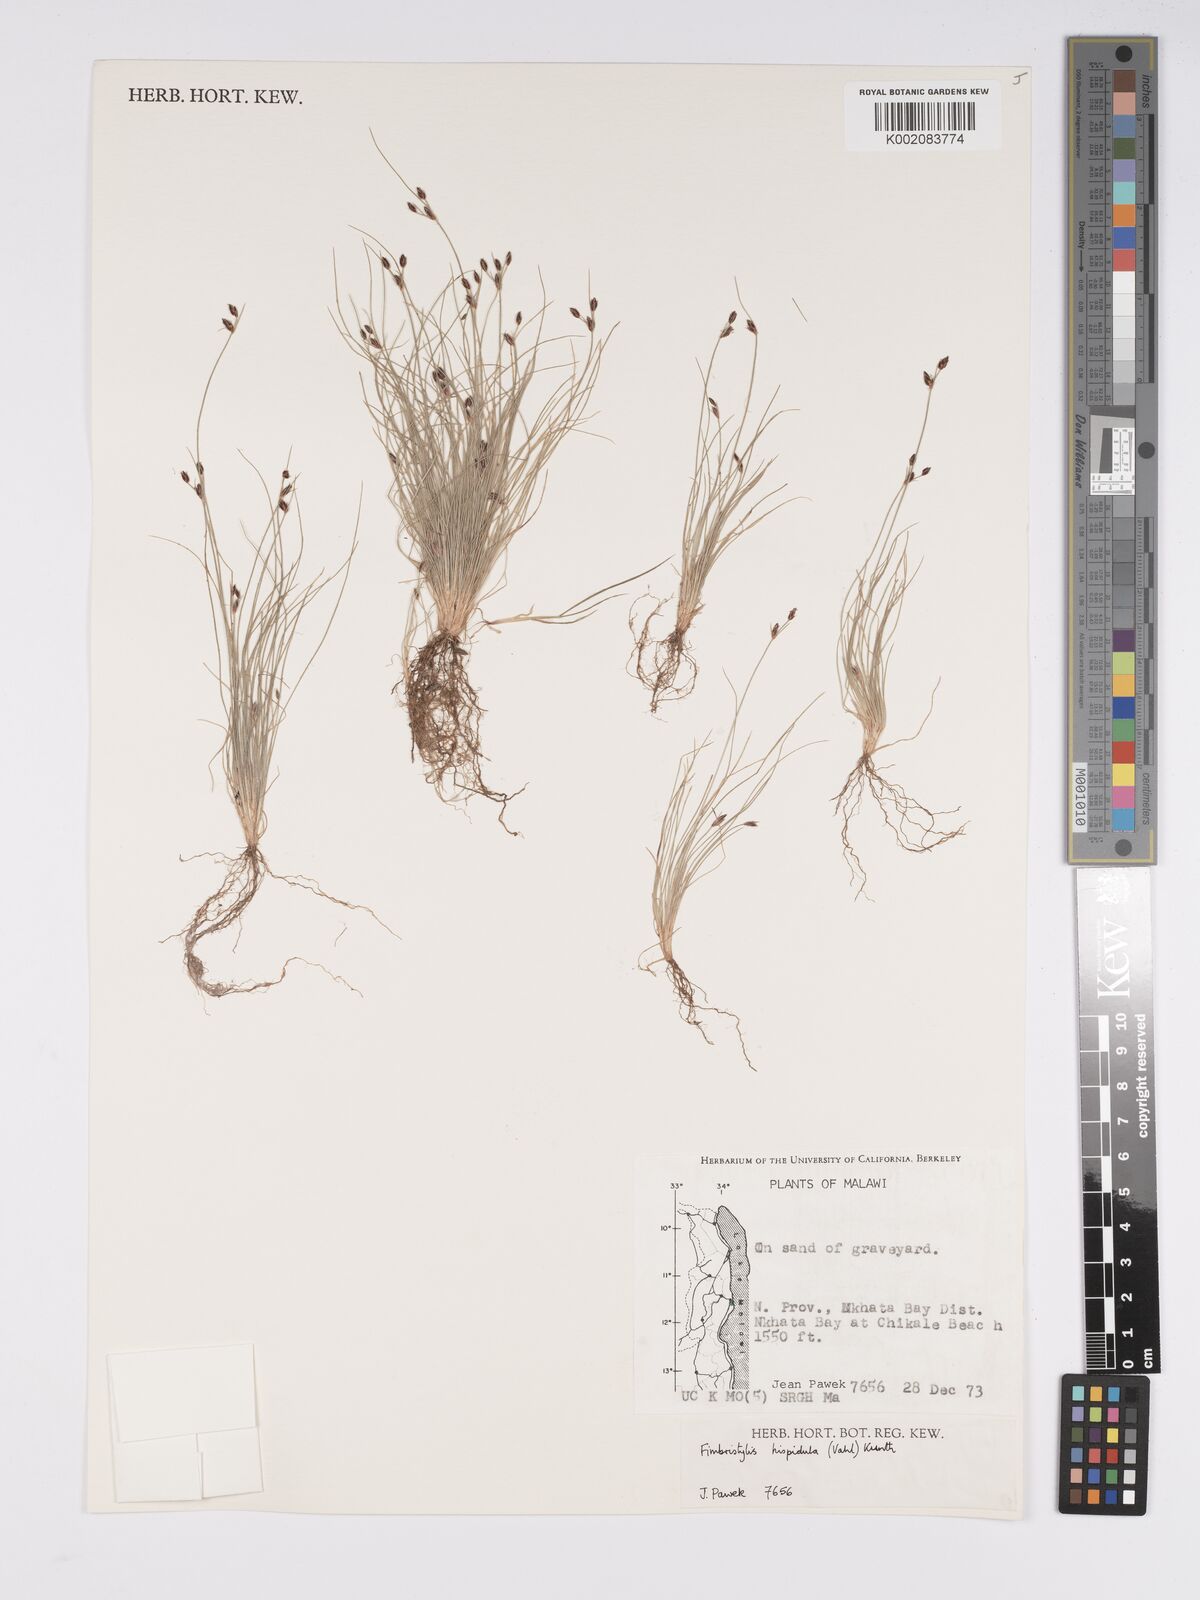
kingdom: Plantae
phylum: Tracheophyta
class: Liliopsida
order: Poales
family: Cyperaceae
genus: Bulbostylis
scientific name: Bulbostylis hispidula
